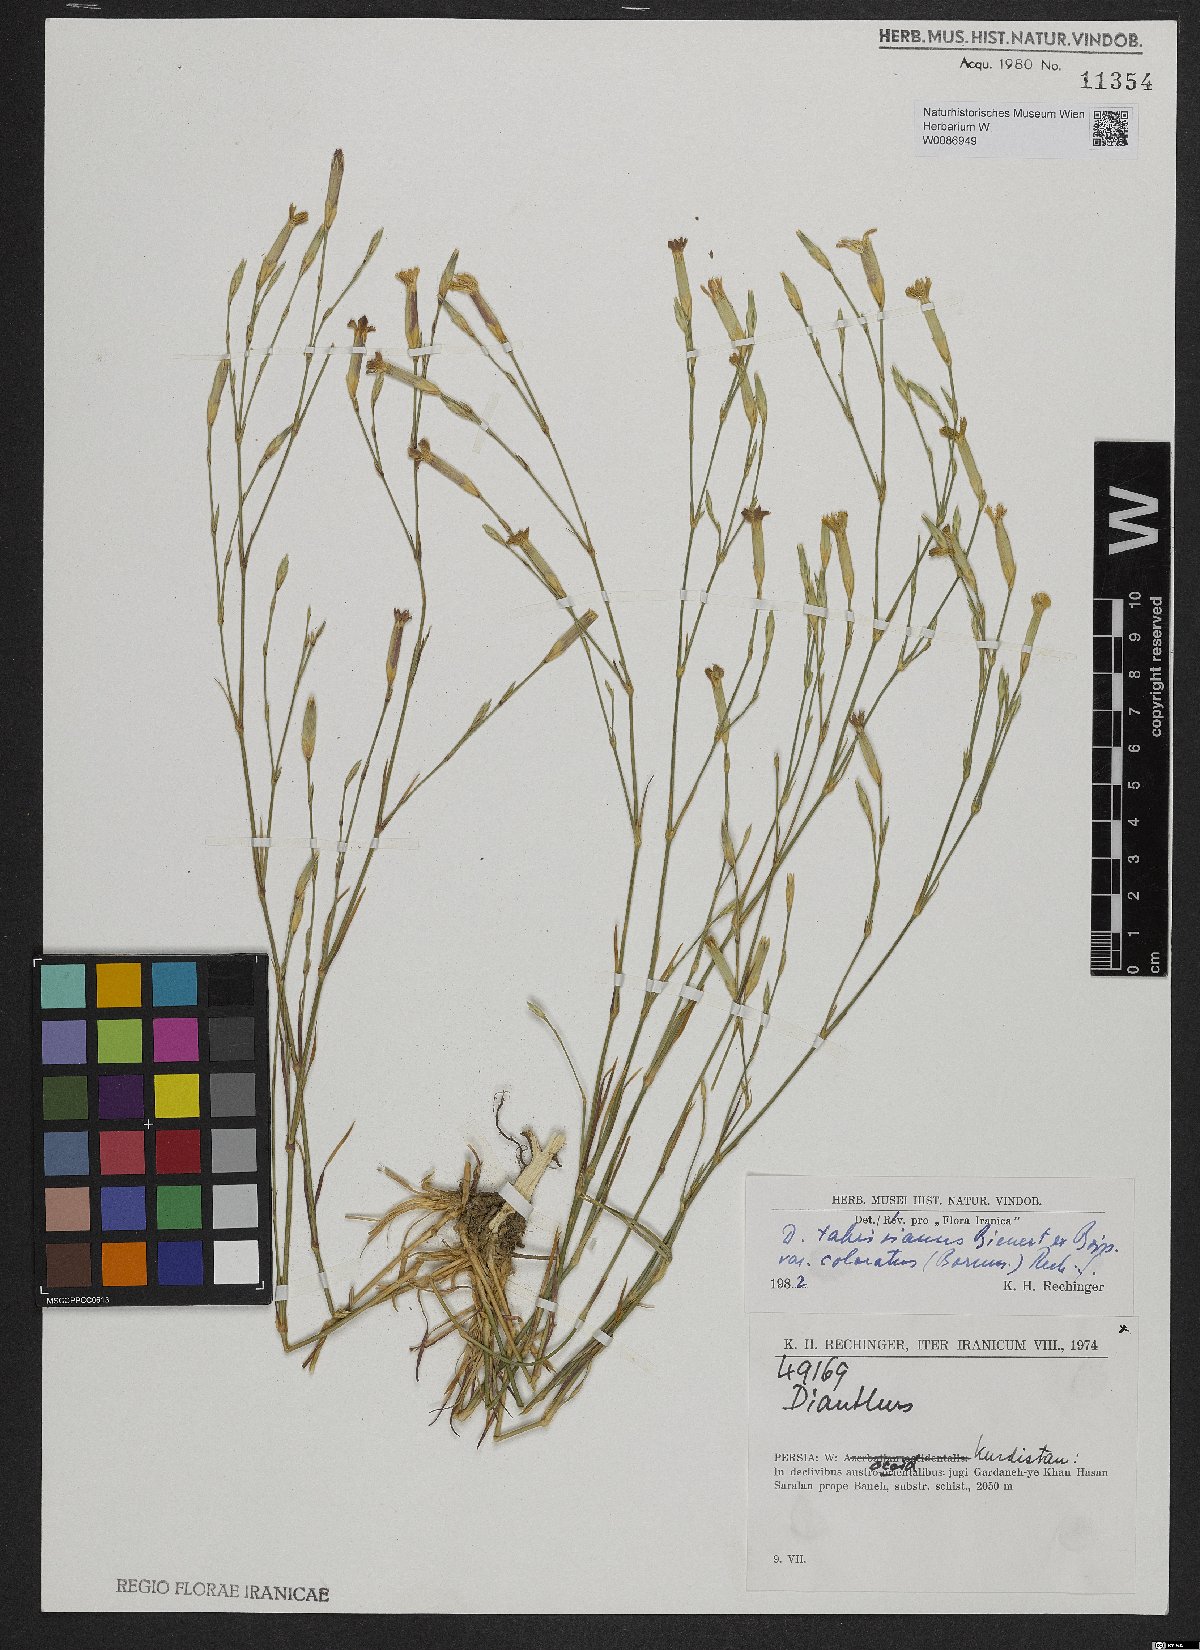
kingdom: Plantae
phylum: Tracheophyta
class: Magnoliopsida
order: Caryophyllales
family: Caryophyllaceae
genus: Dianthus
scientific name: Dianthus tabrisianus
